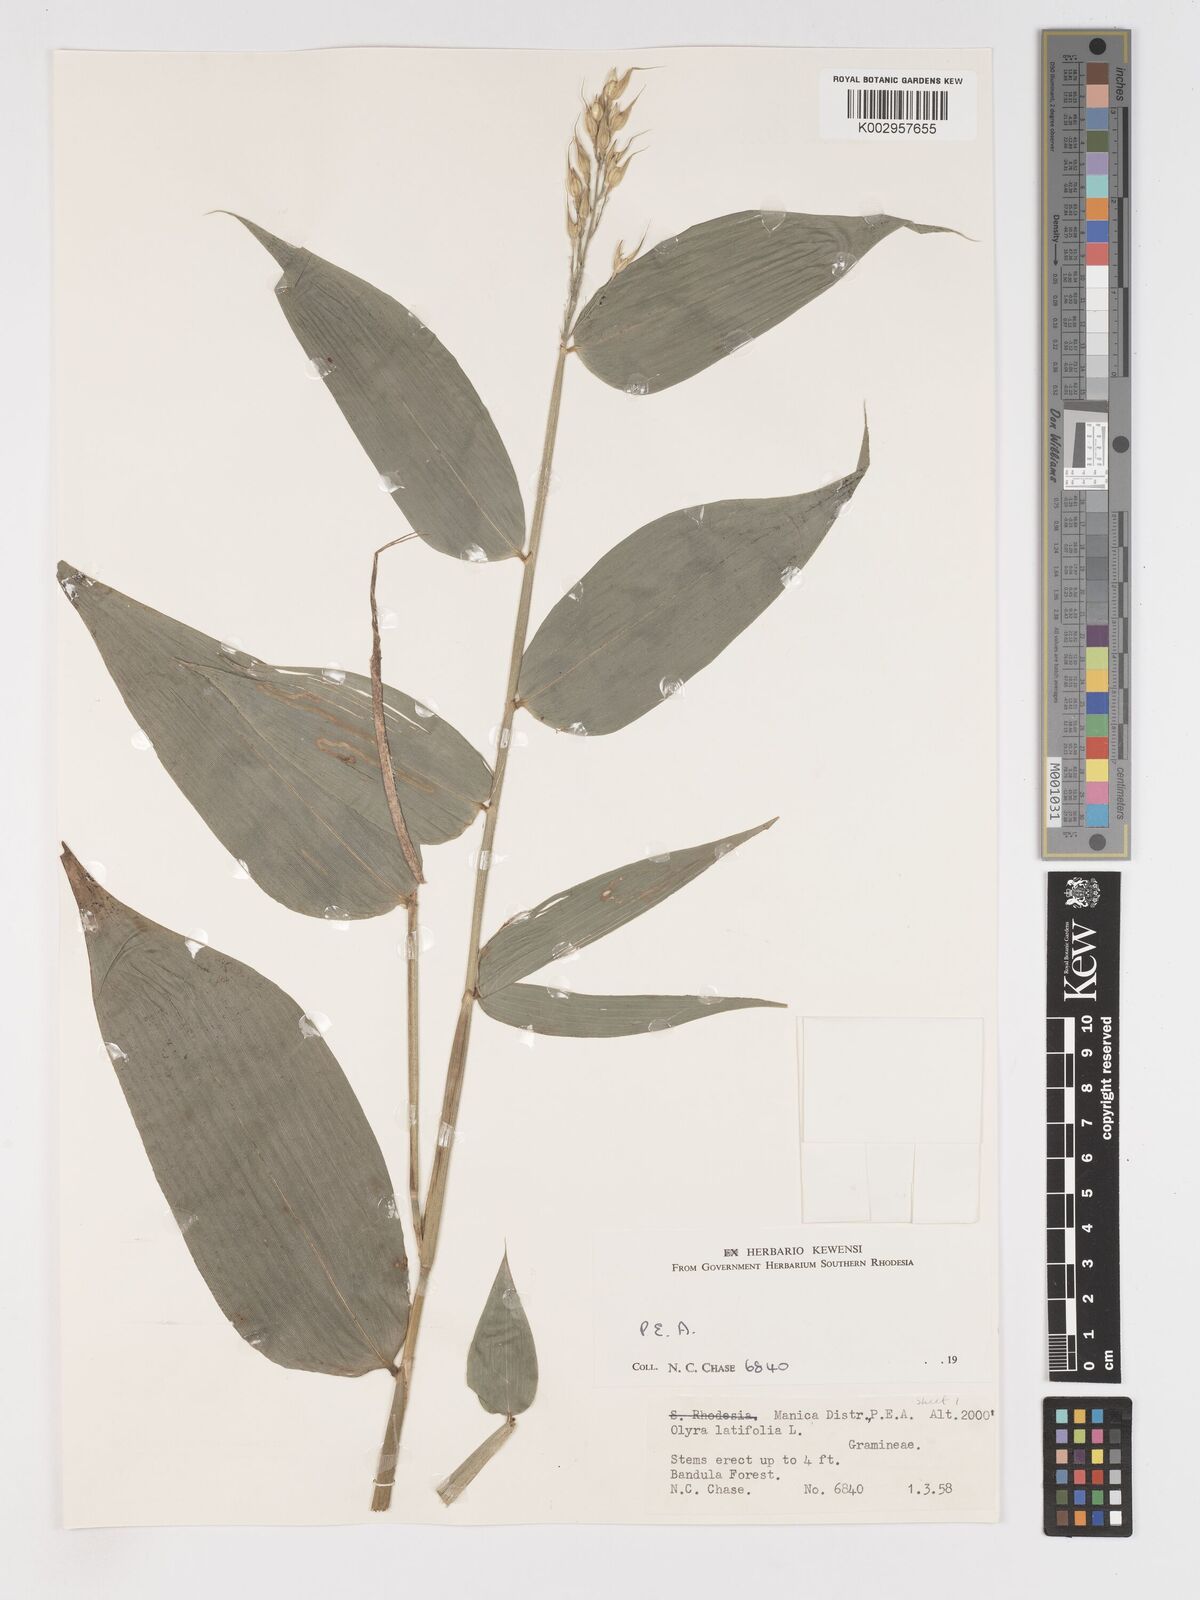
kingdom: Plantae
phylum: Tracheophyta
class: Liliopsida
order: Poales
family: Poaceae
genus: Olyra
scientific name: Olyra latifolia
